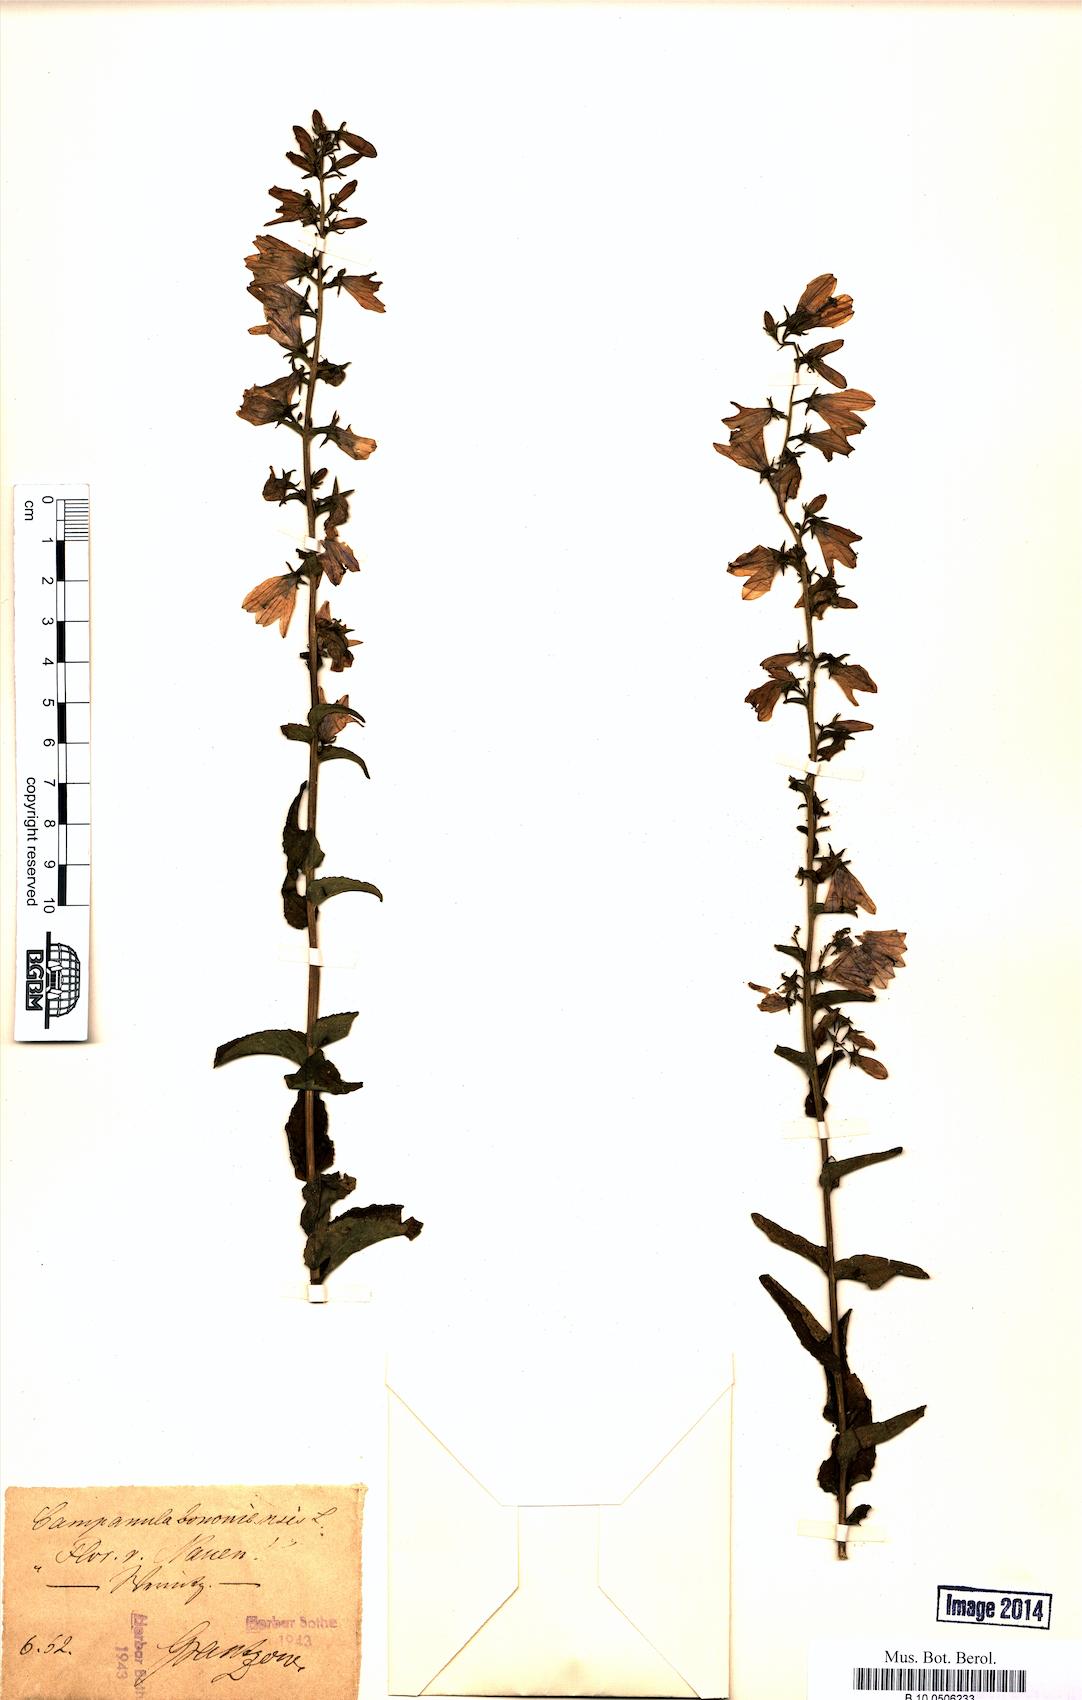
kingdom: Plantae
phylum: Tracheophyta
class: Magnoliopsida
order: Asterales
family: Campanulaceae
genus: Campanula
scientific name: Campanula bononiensis
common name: Pale bellflower
